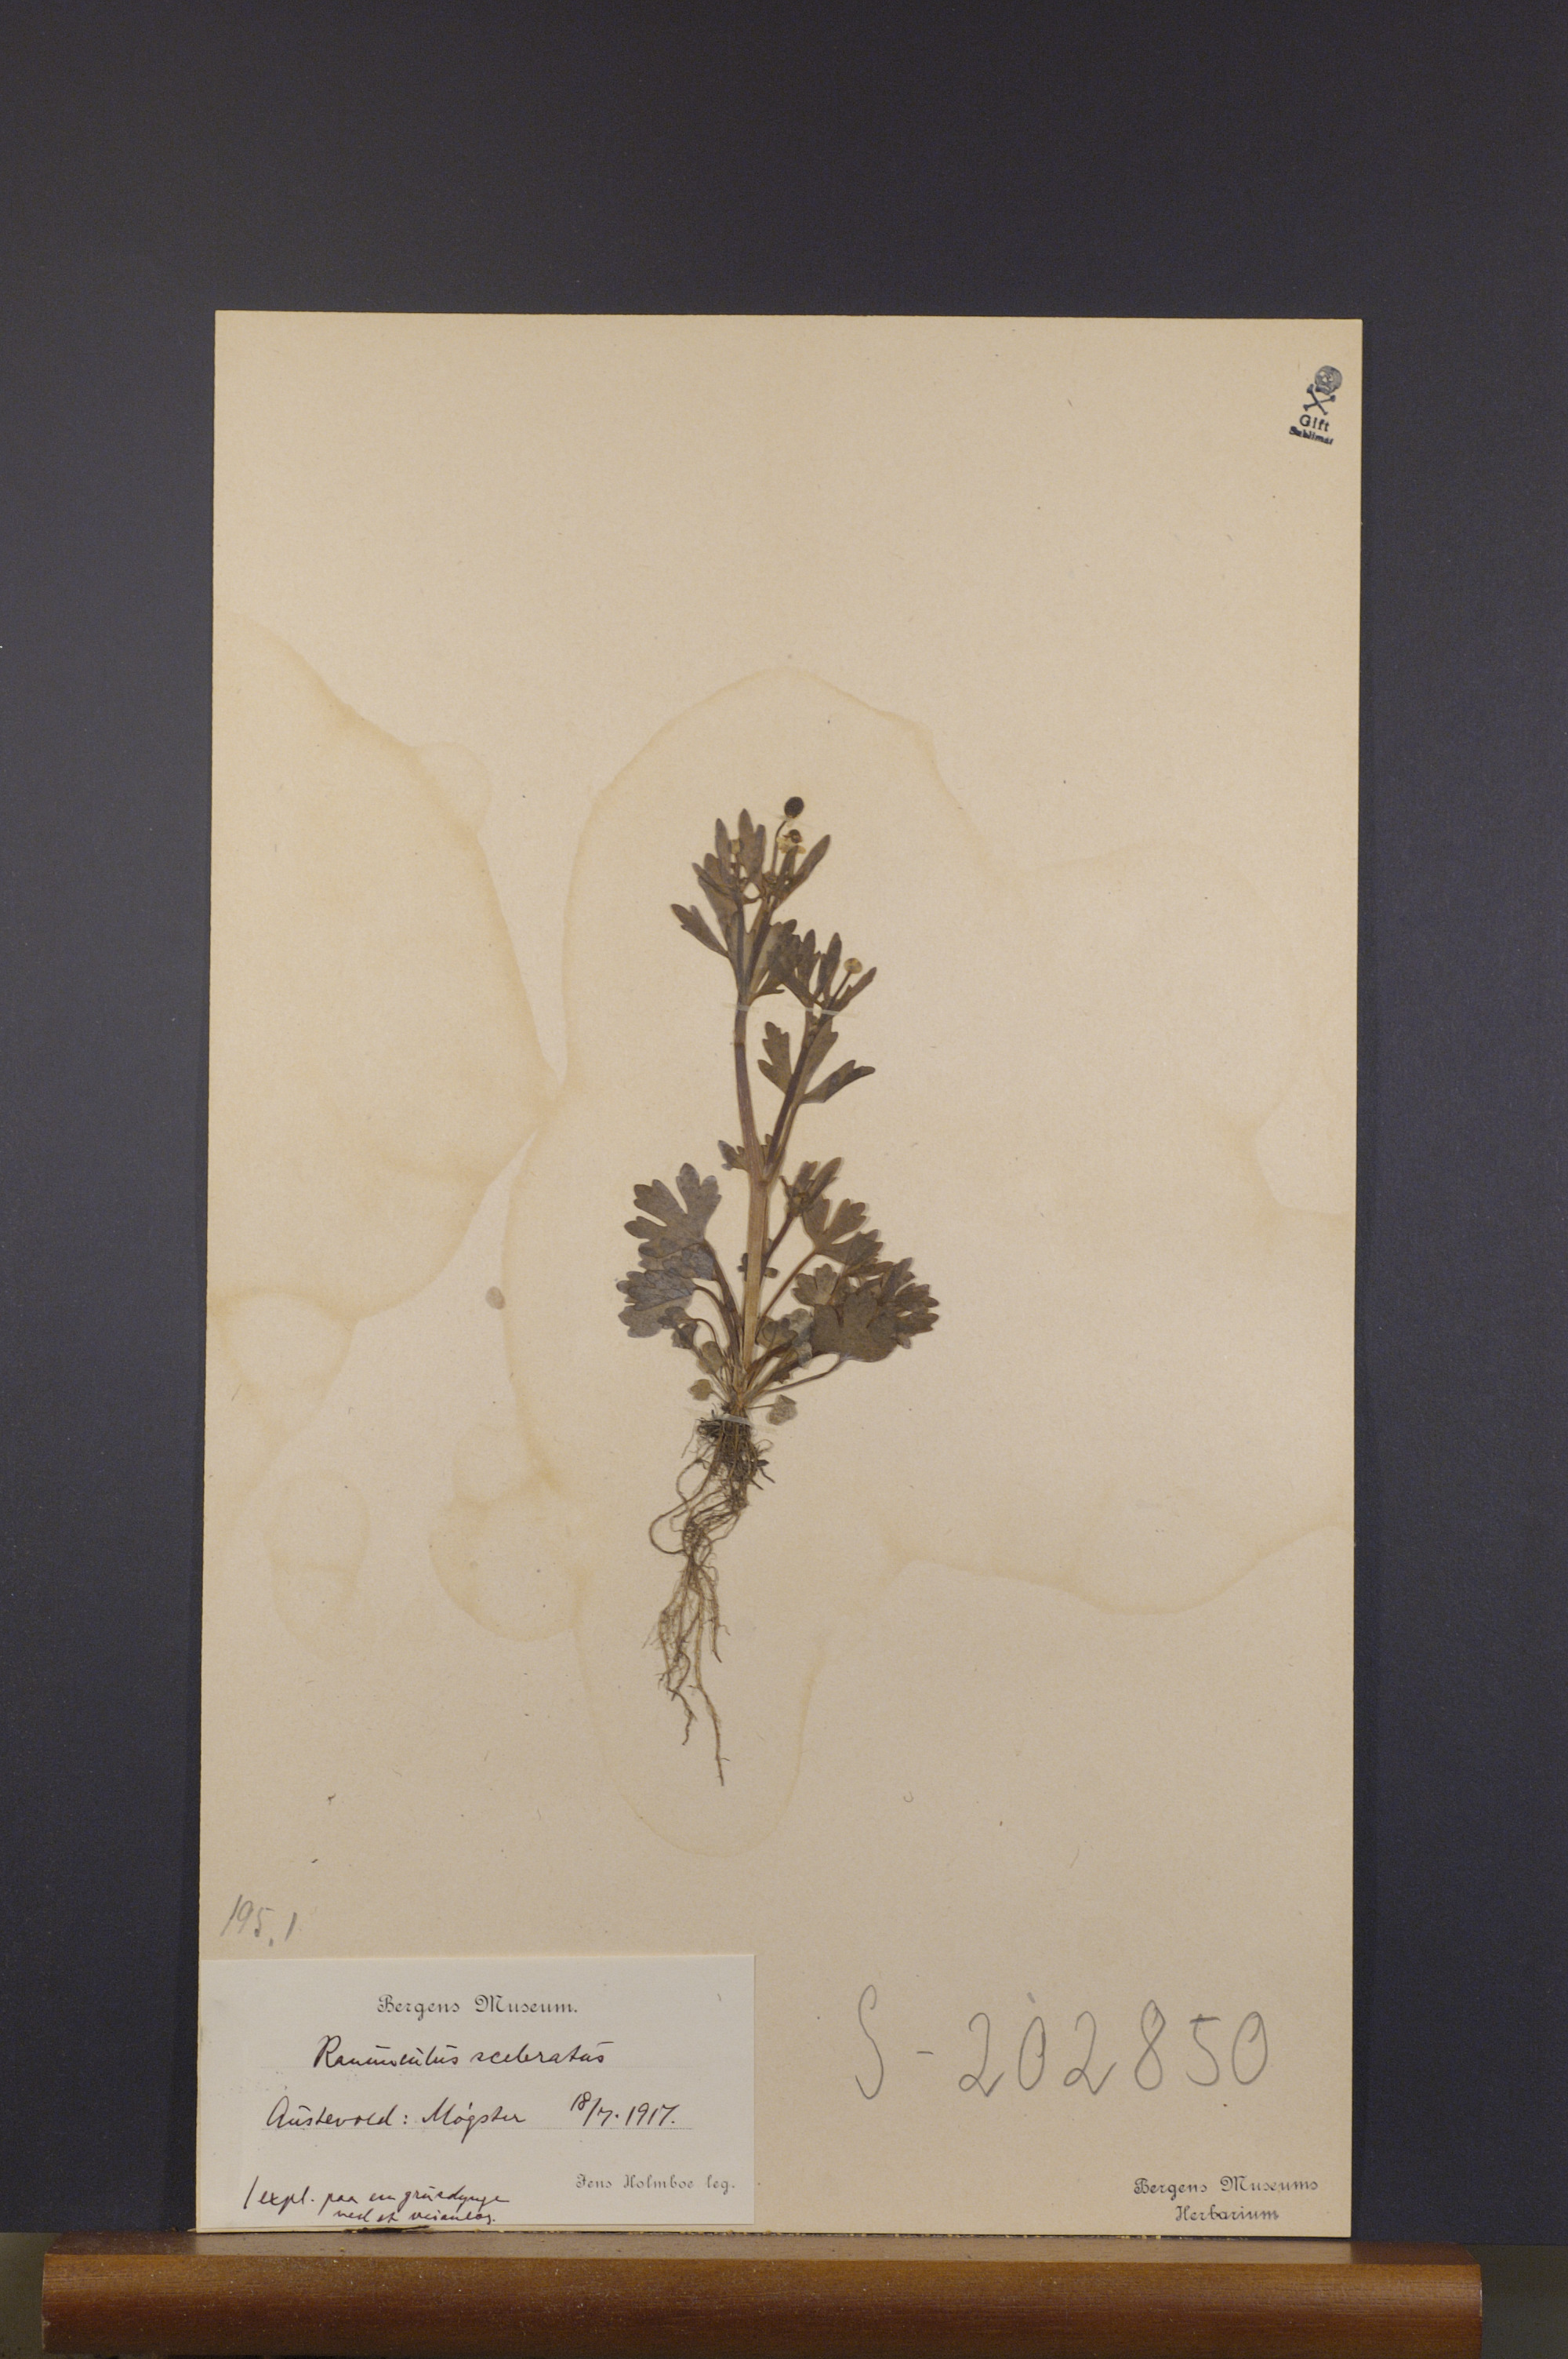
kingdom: Plantae
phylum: Tracheophyta
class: Magnoliopsida
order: Ranunculales
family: Ranunculaceae
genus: Ranunculus
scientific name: Ranunculus sceleratus
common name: Celery-leaved buttercup
